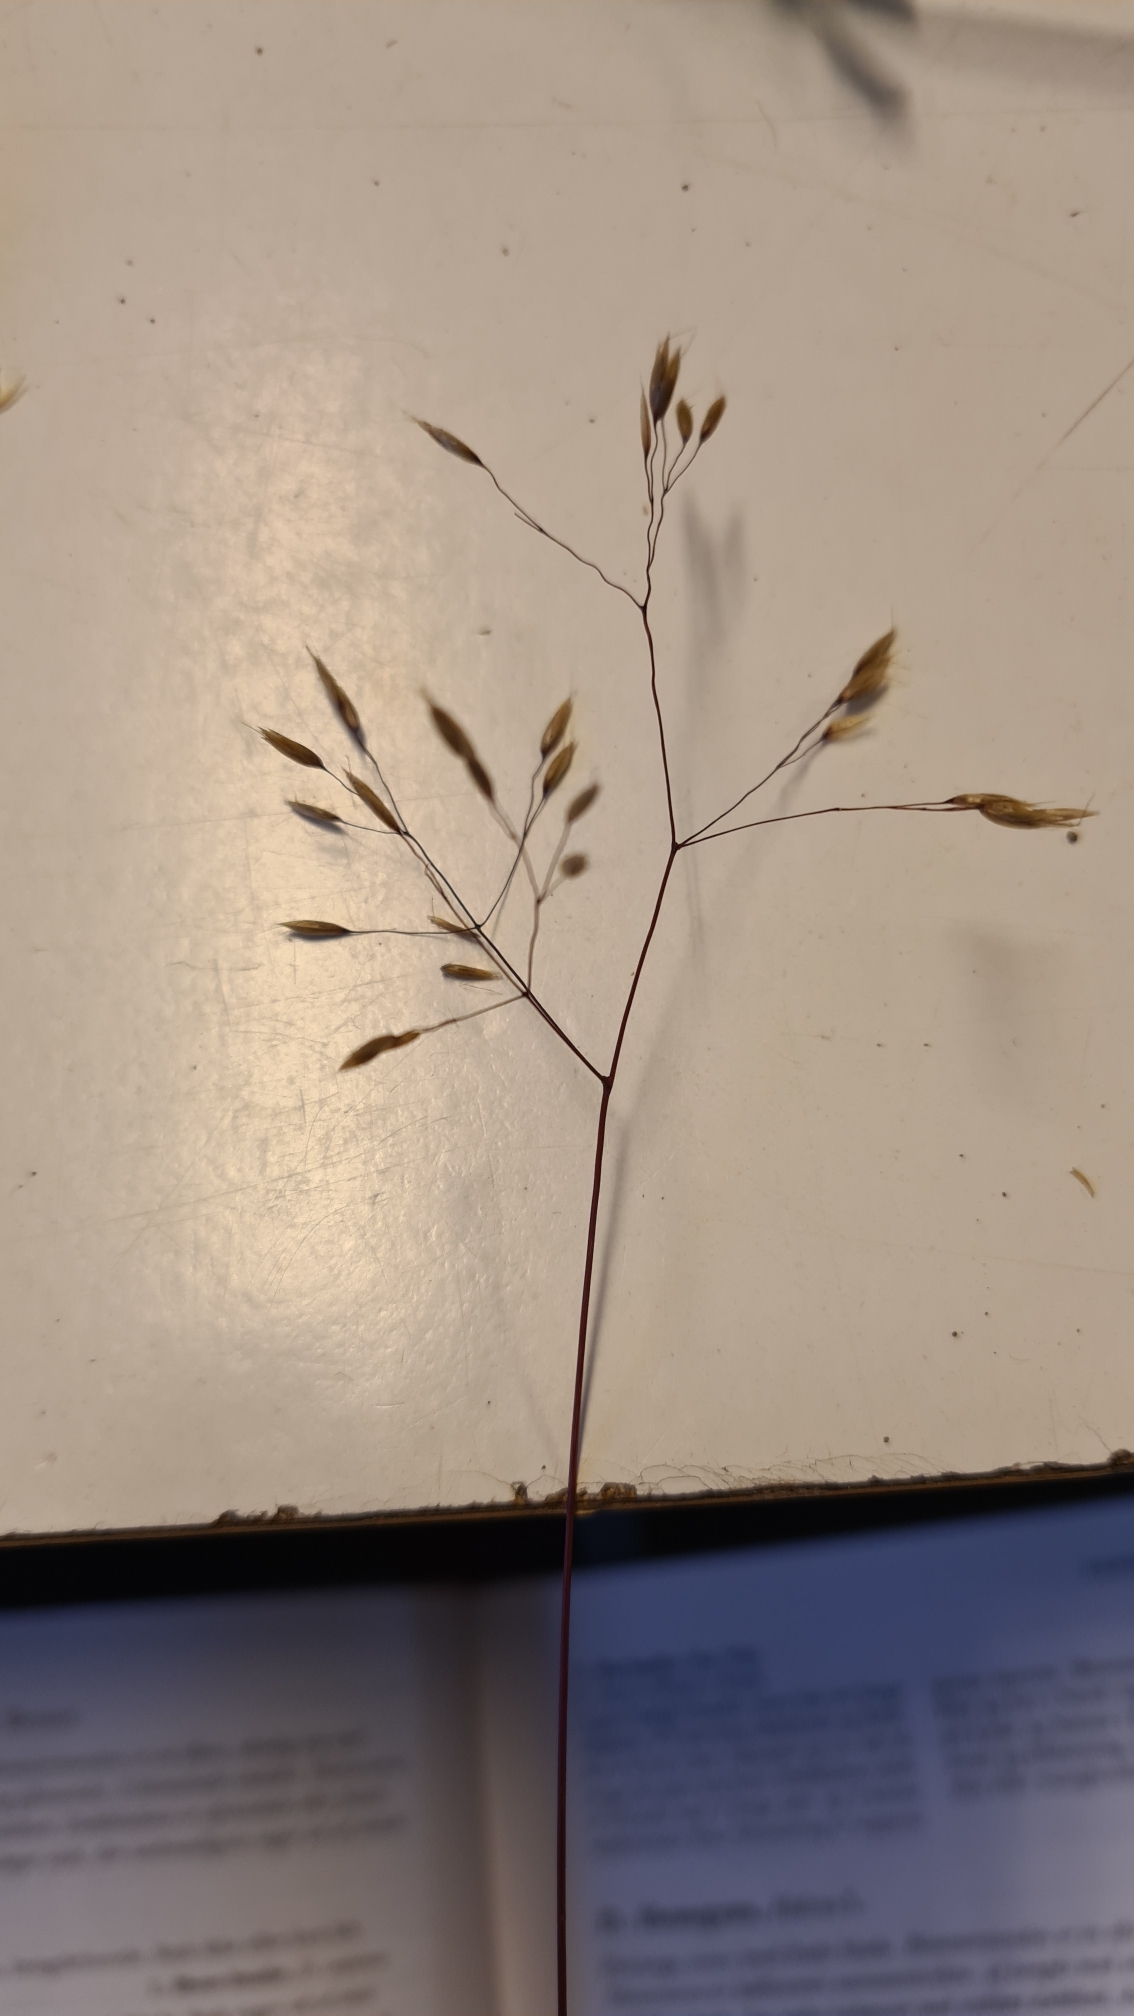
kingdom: Plantae
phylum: Tracheophyta
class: Liliopsida
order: Poales
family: Poaceae
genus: Avenella
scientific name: Avenella flexuosa
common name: Bølget bunke
